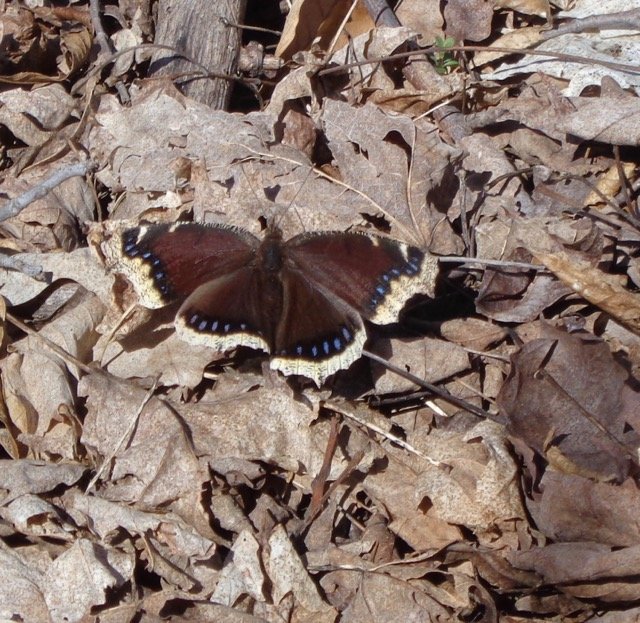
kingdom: Animalia
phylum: Arthropoda
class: Insecta
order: Lepidoptera
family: Nymphalidae
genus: Nymphalis
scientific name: Nymphalis antiopa
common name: Mourning Cloak
